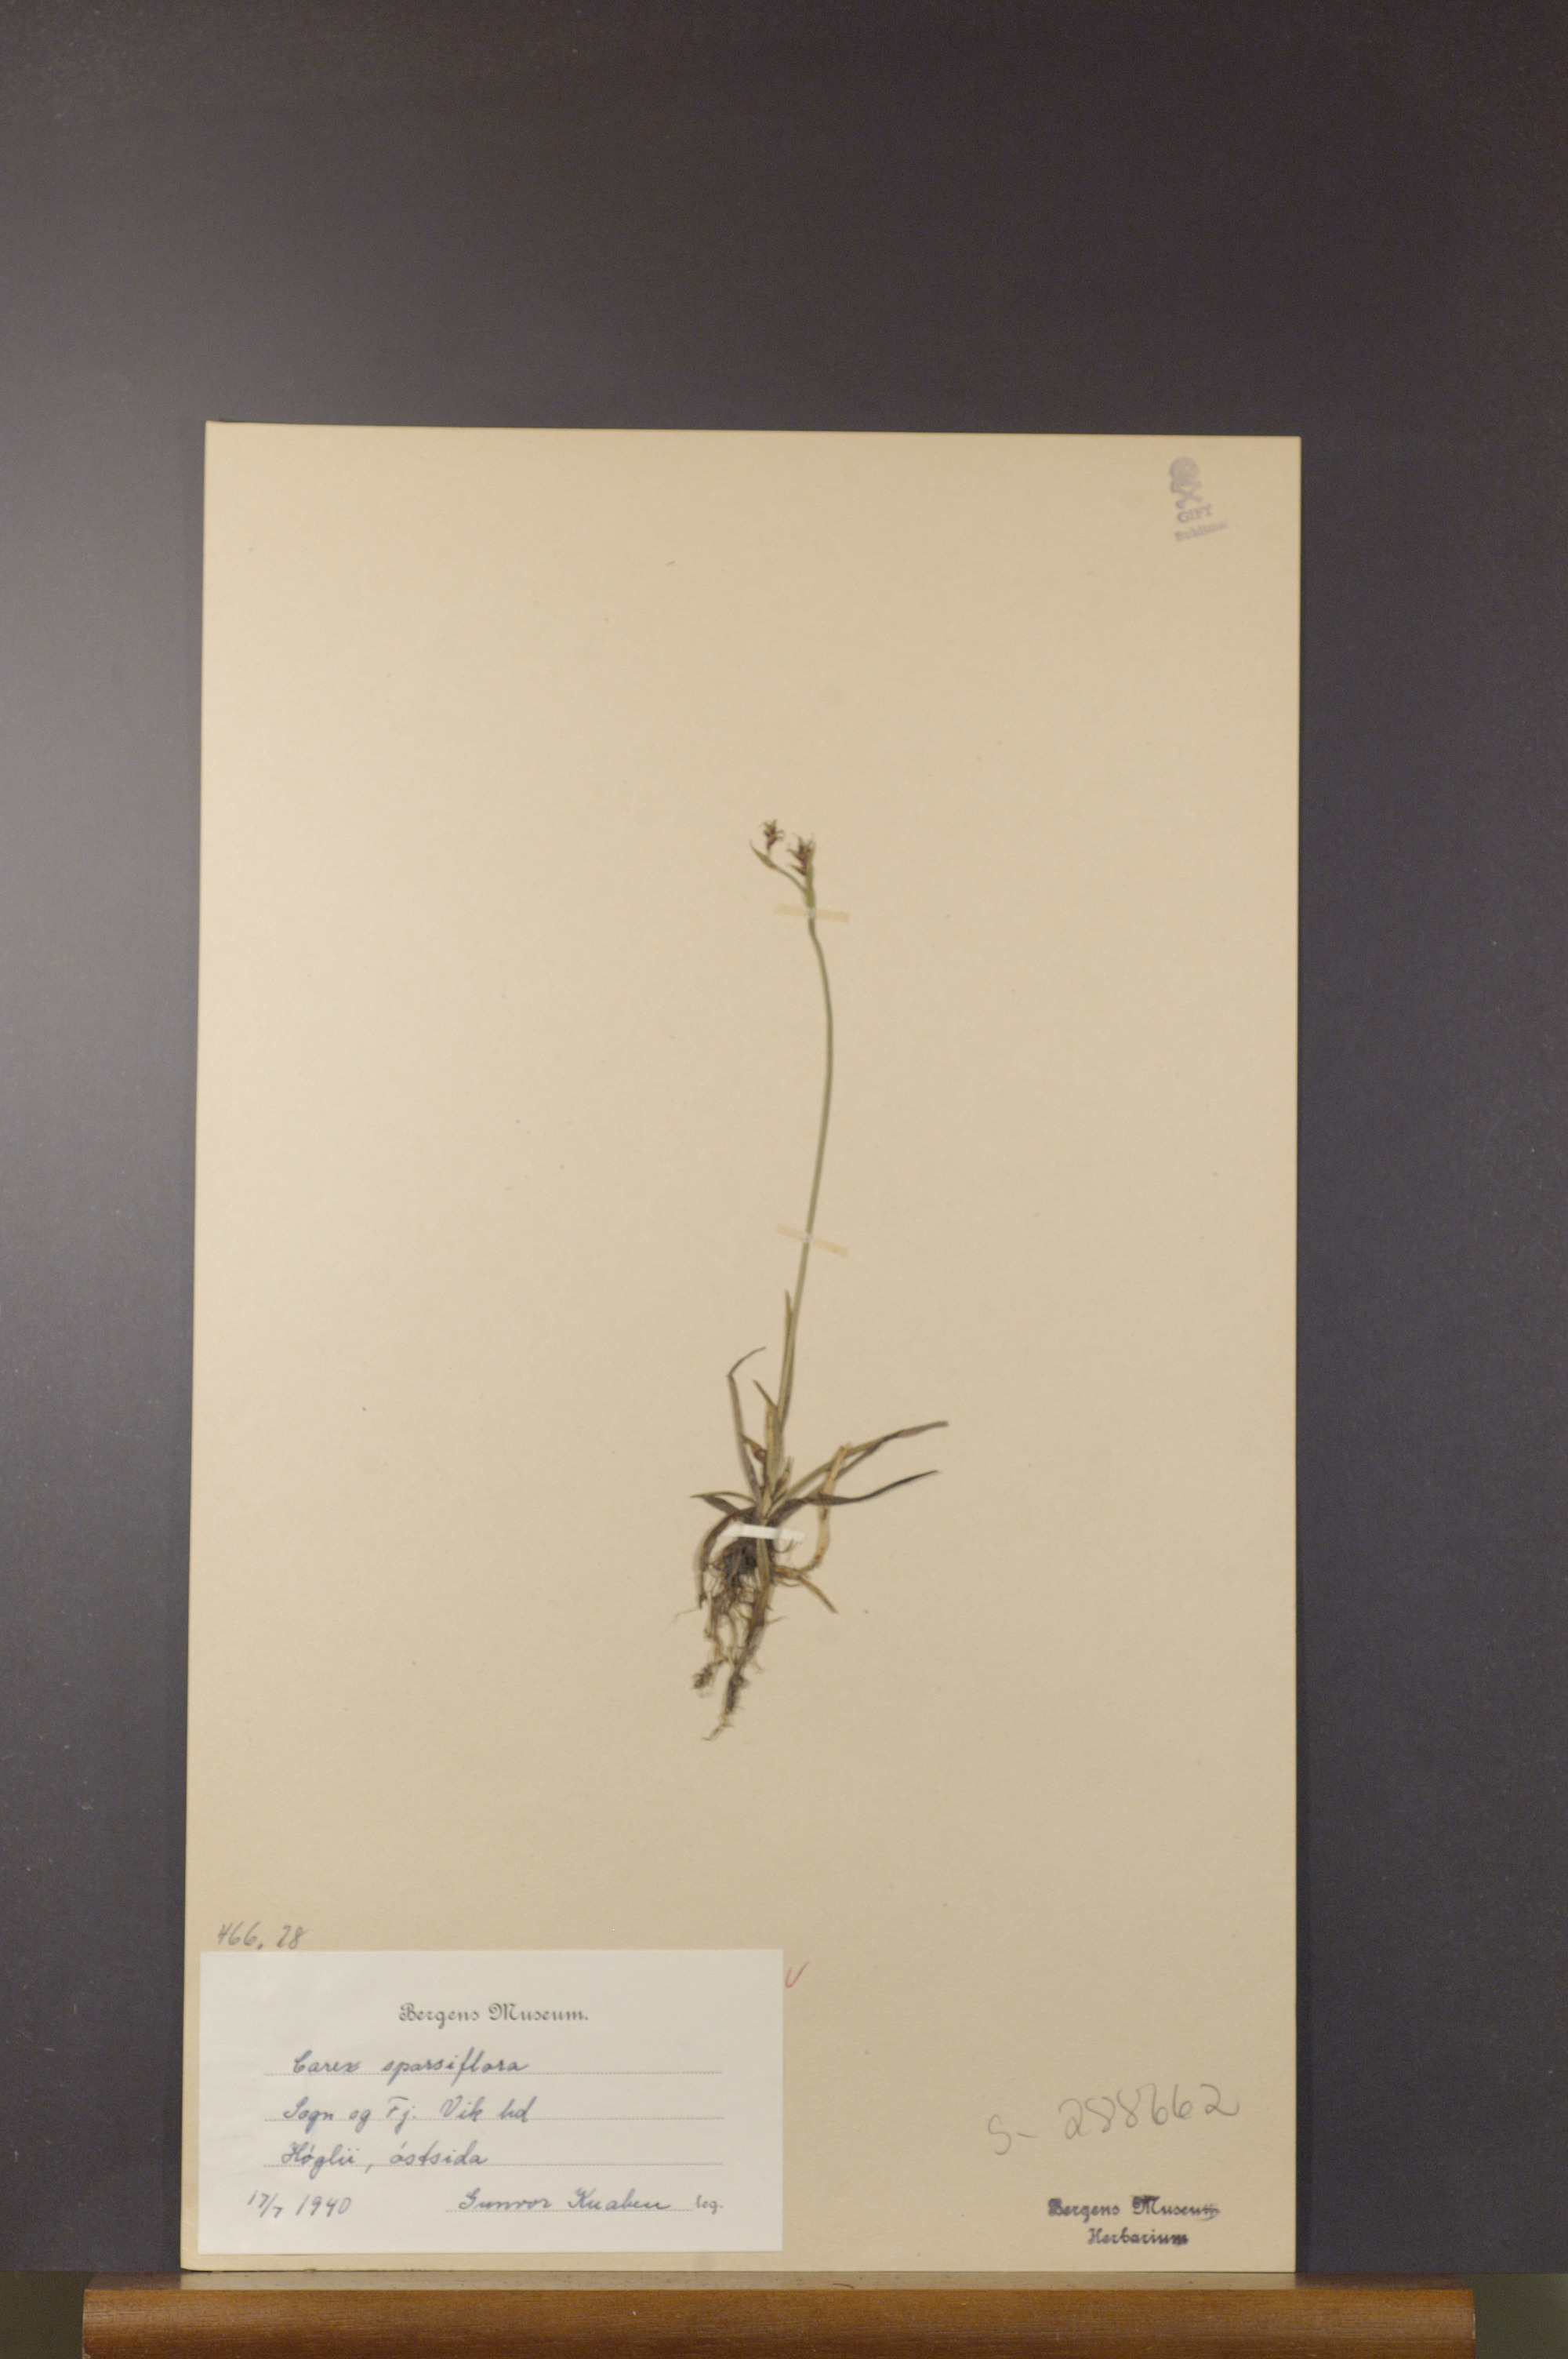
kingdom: Plantae
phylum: Tracheophyta
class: Liliopsida
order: Poales
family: Cyperaceae
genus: Carex
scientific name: Carex vaginata
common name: Sheathed sedge
